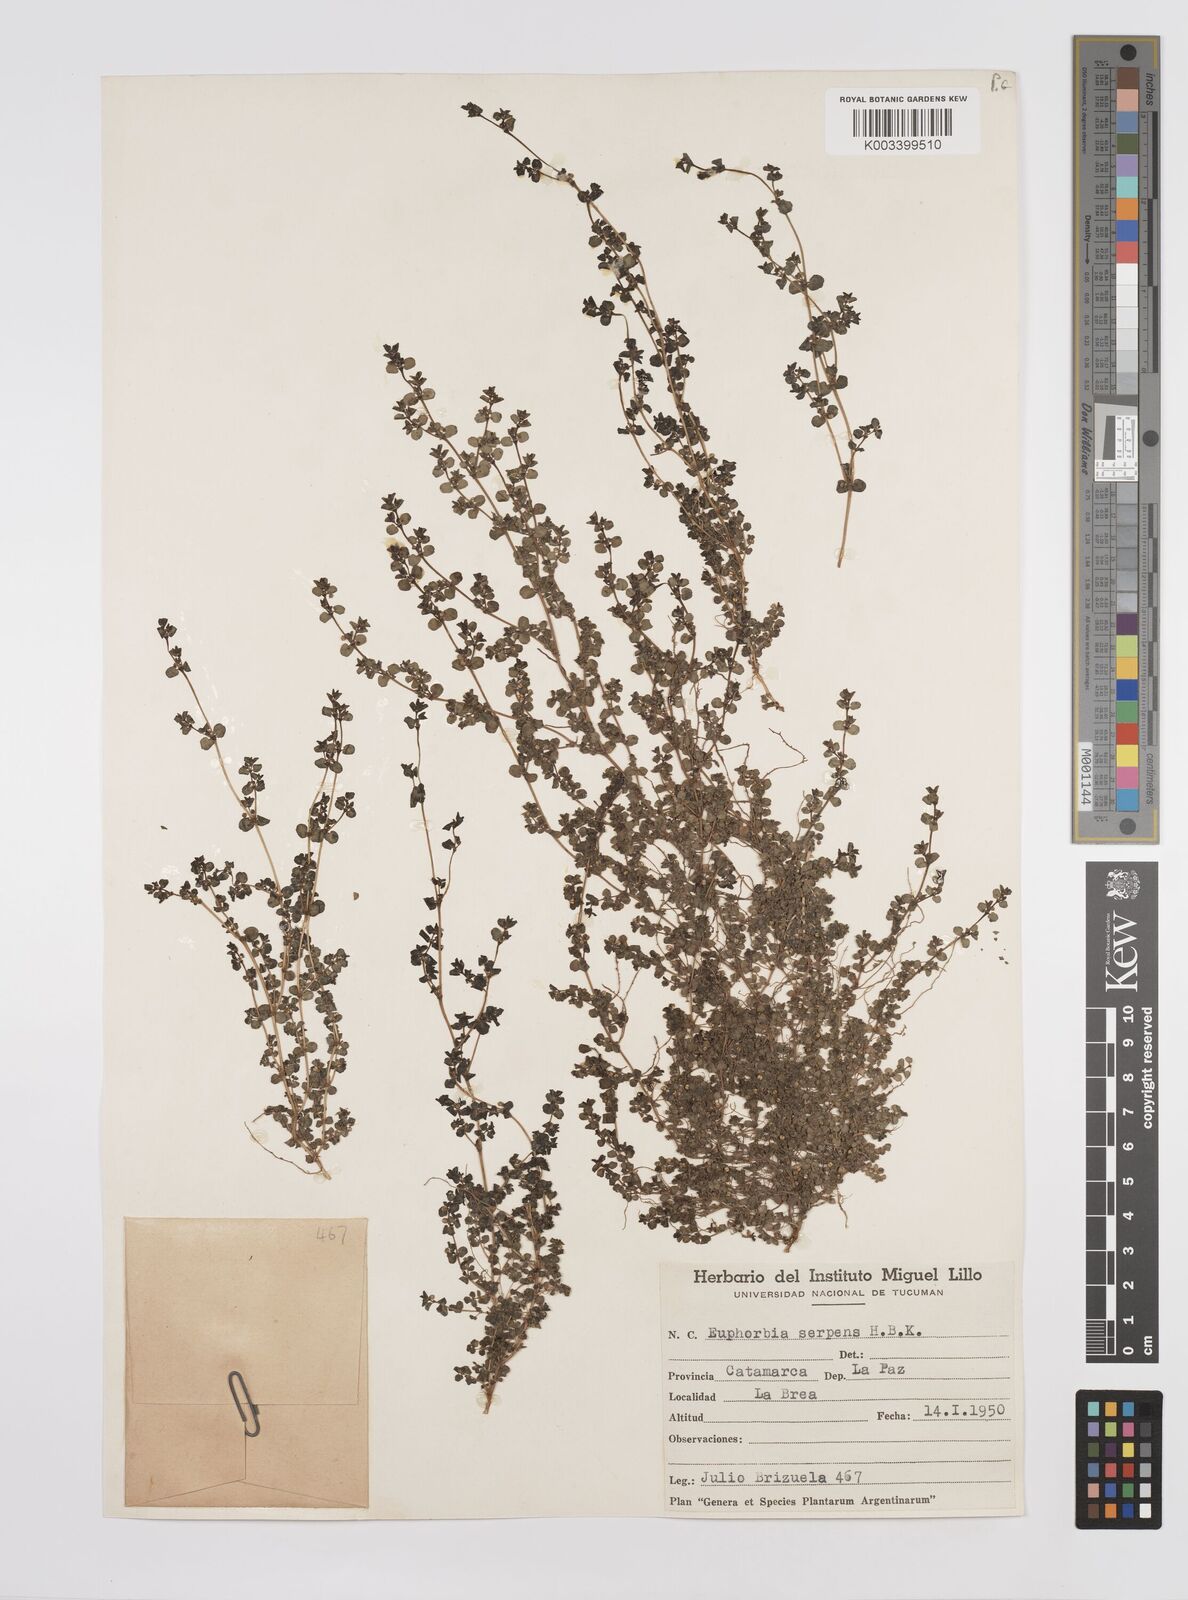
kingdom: Plantae
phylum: Tracheophyta
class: Magnoliopsida
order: Malpighiales
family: Euphorbiaceae
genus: Euphorbia
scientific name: Euphorbia
